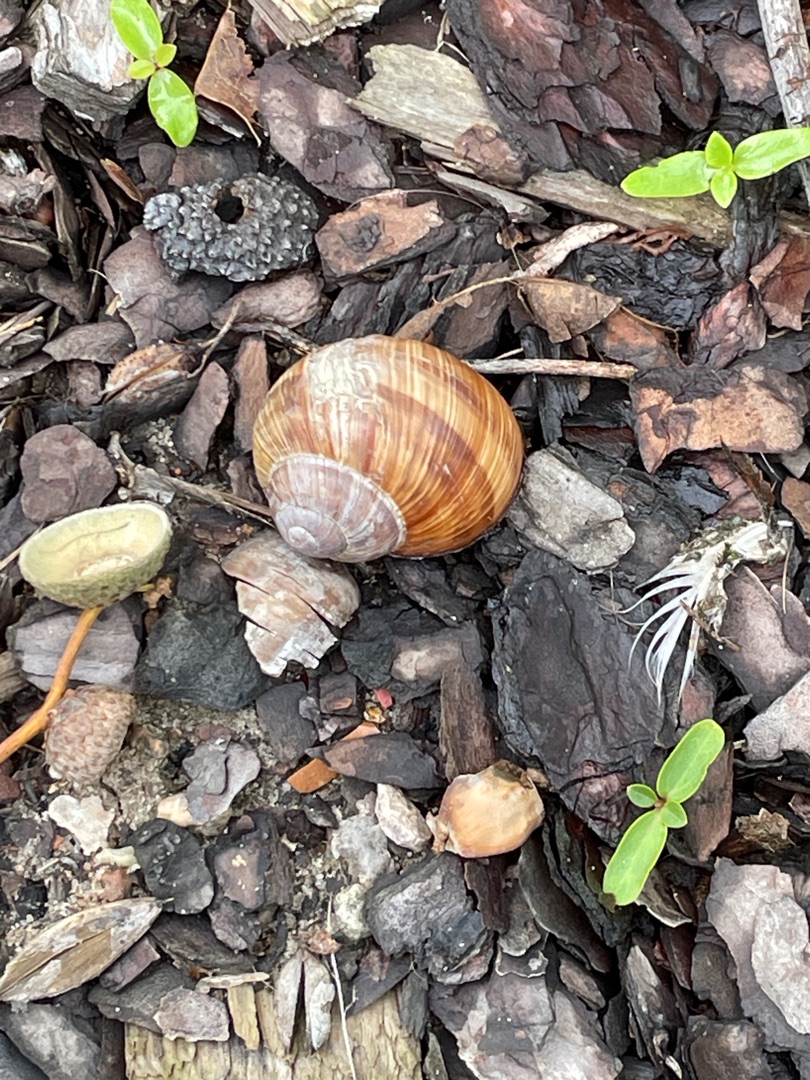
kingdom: Animalia
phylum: Mollusca
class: Gastropoda
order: Stylommatophora
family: Helicidae
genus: Helix
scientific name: Helix pomatia
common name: Vinbjergsnegl
